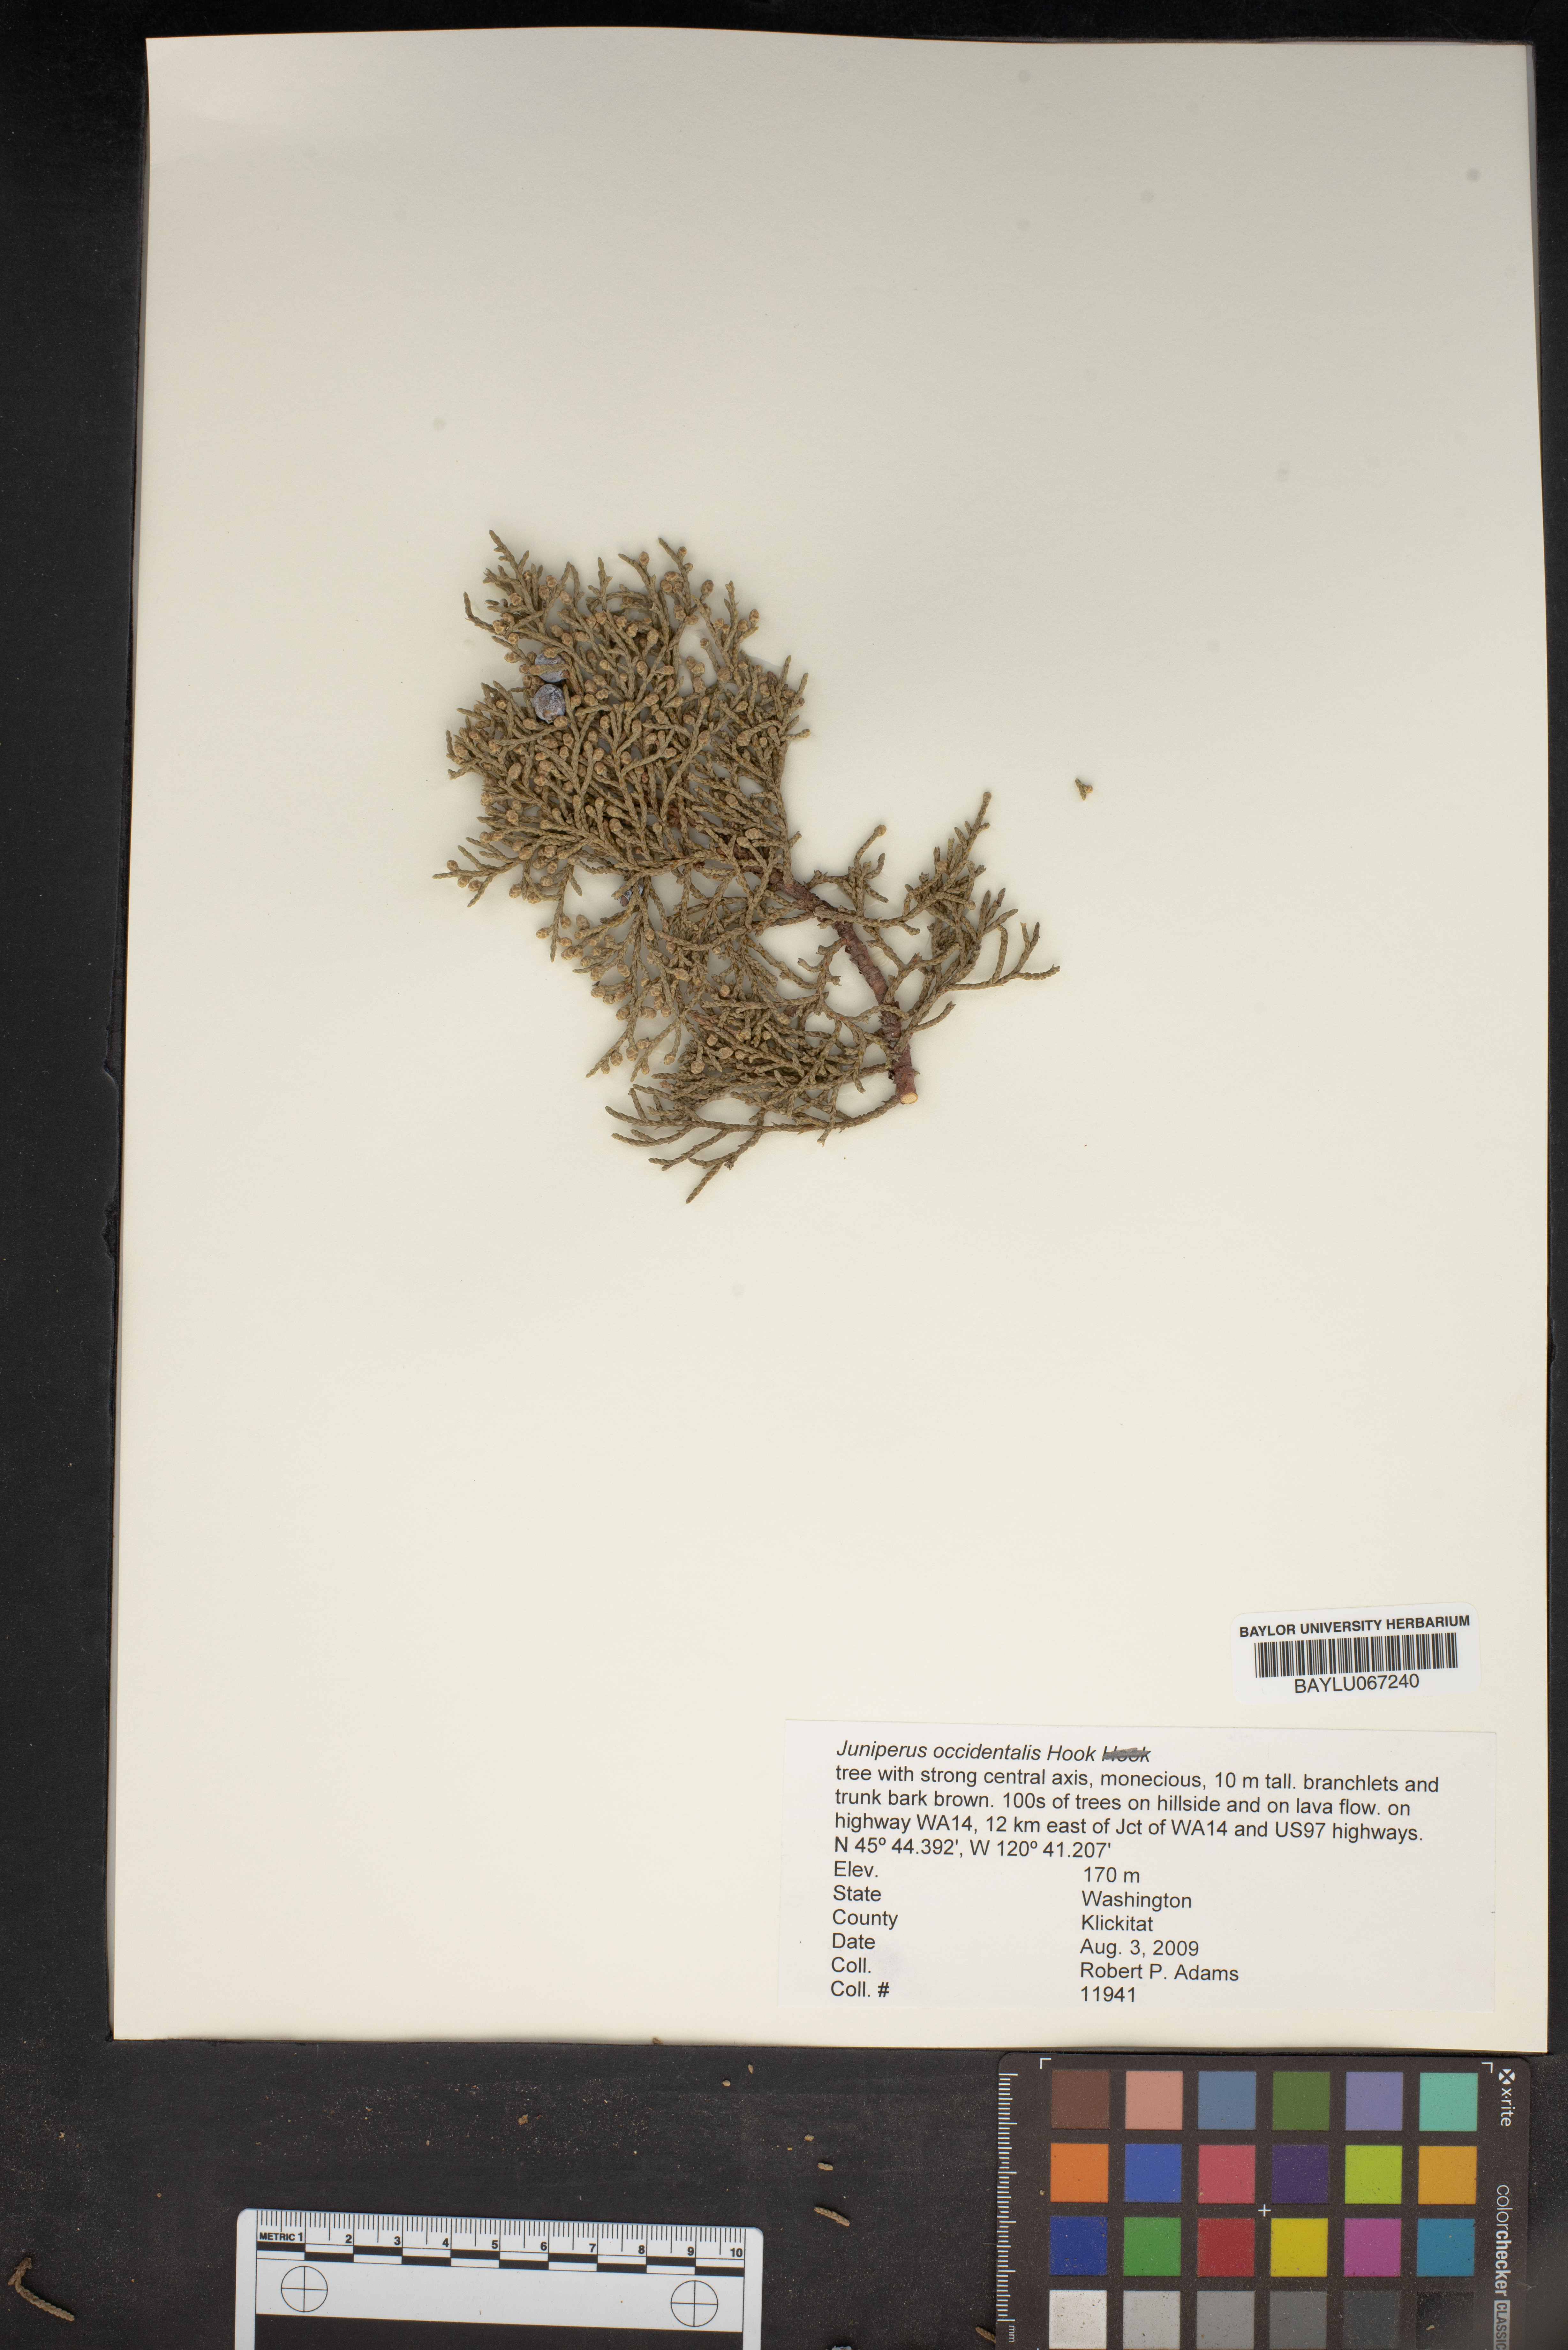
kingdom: Plantae
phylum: Tracheophyta
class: Pinopsida
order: Pinales
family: Cupressaceae
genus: Juniperus
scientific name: Juniperus occidentalis
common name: Western juniper
